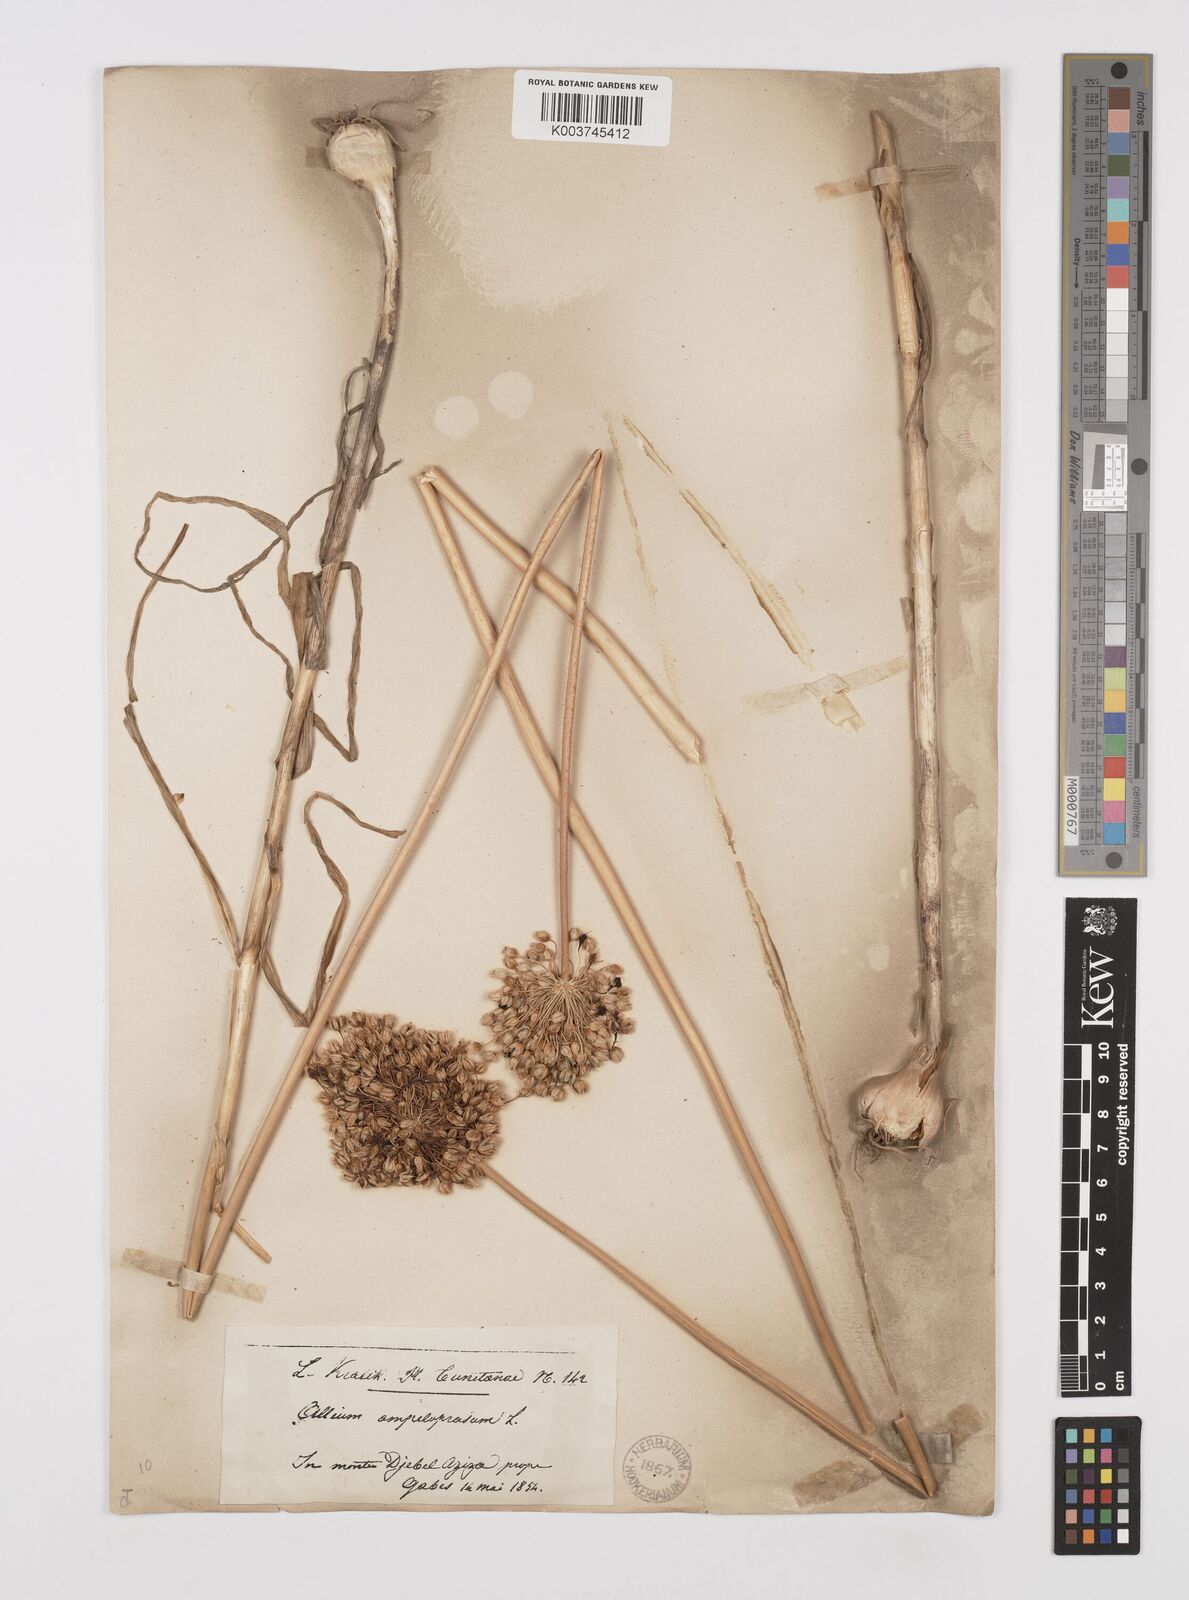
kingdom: Plantae
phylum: Tracheophyta
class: Liliopsida
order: Asparagales
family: Amaryllidaceae
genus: Allium
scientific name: Allium rotundum
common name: Sand leek
